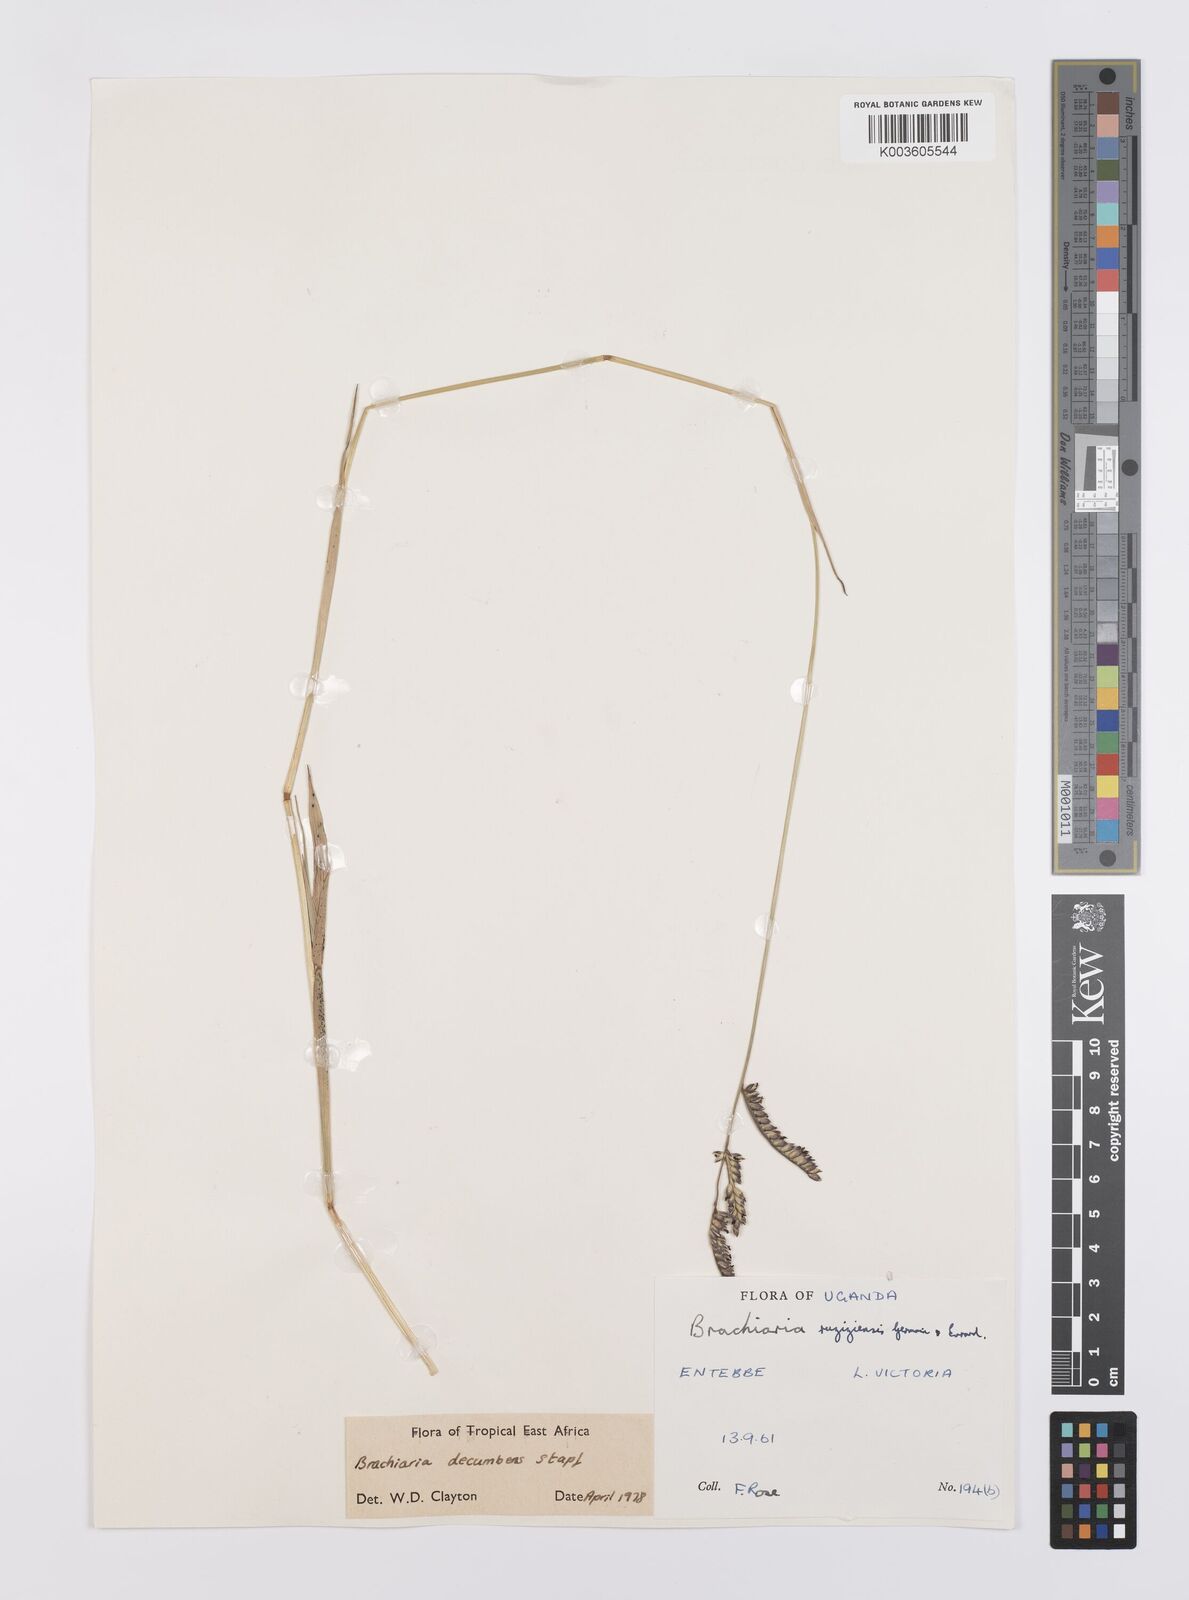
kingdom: Plantae
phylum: Tracheophyta
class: Liliopsida
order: Poales
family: Poaceae
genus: Urochloa
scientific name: Urochloa eminii
